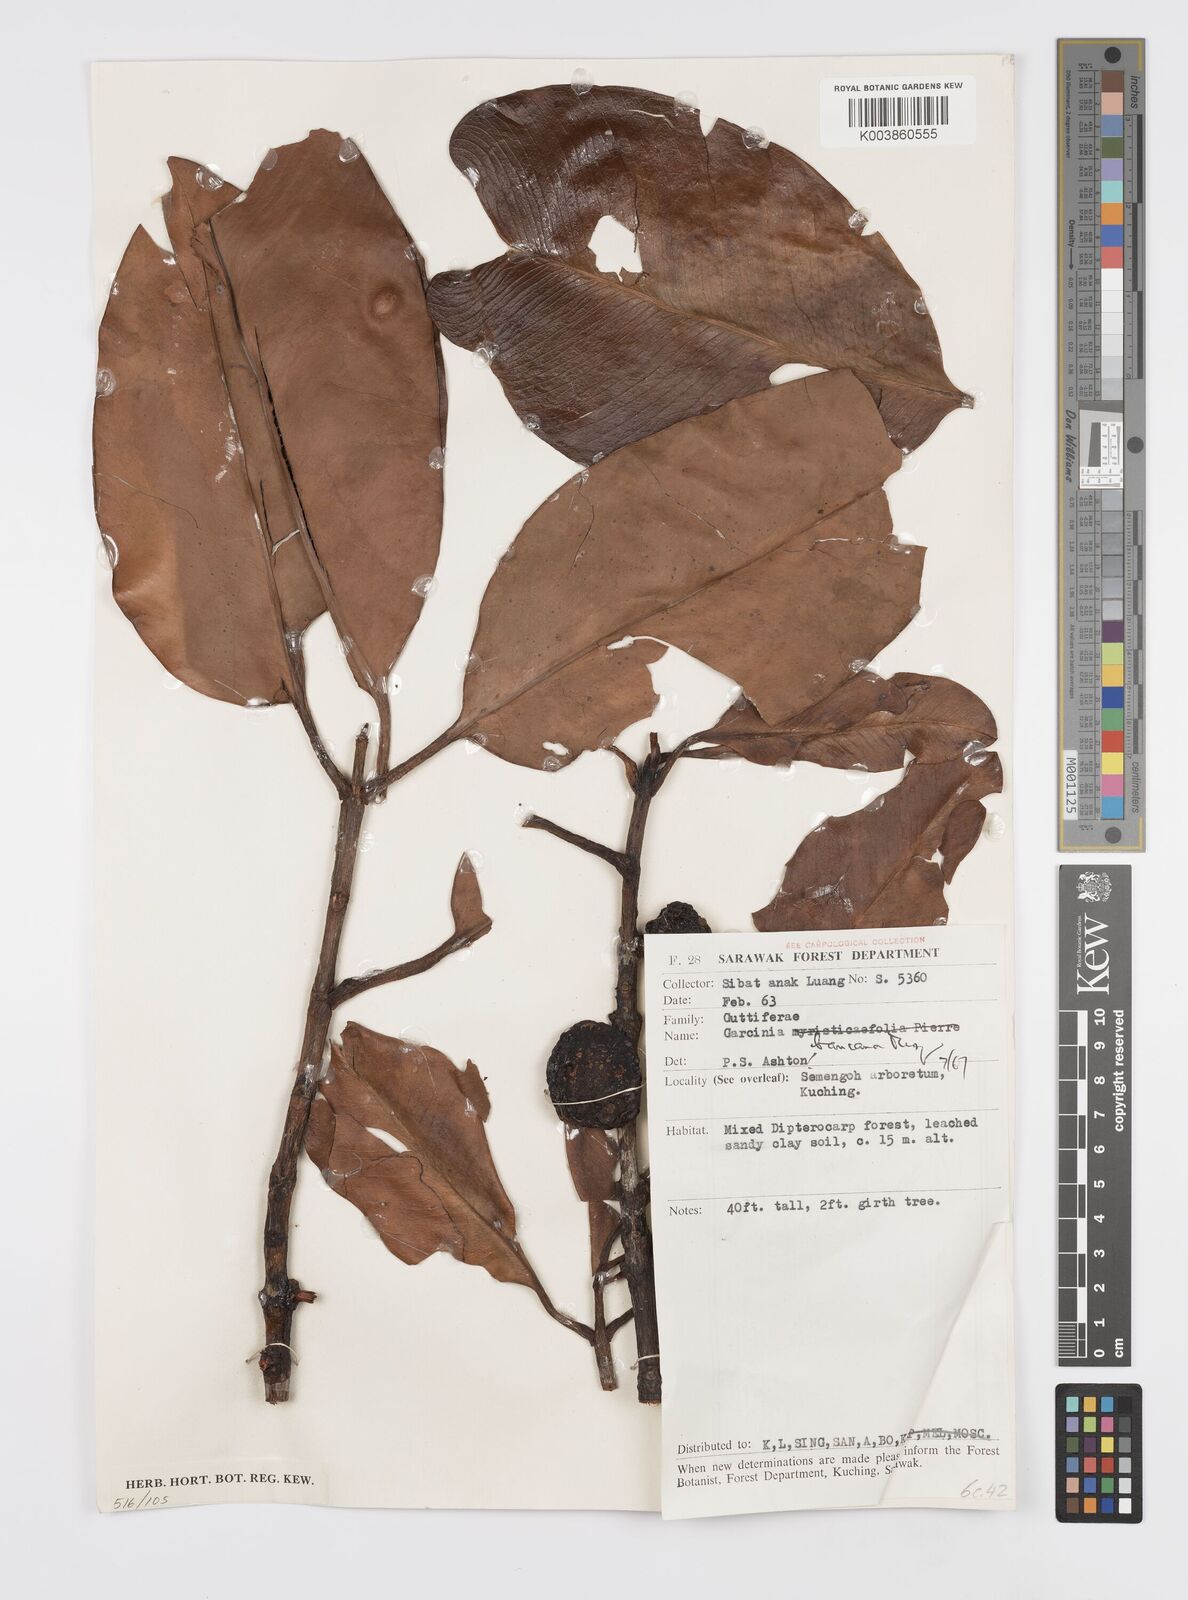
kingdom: Plantae
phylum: Tracheophyta
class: Magnoliopsida
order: Malpighiales
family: Clusiaceae
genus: Garcinia
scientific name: Garcinia bancana
